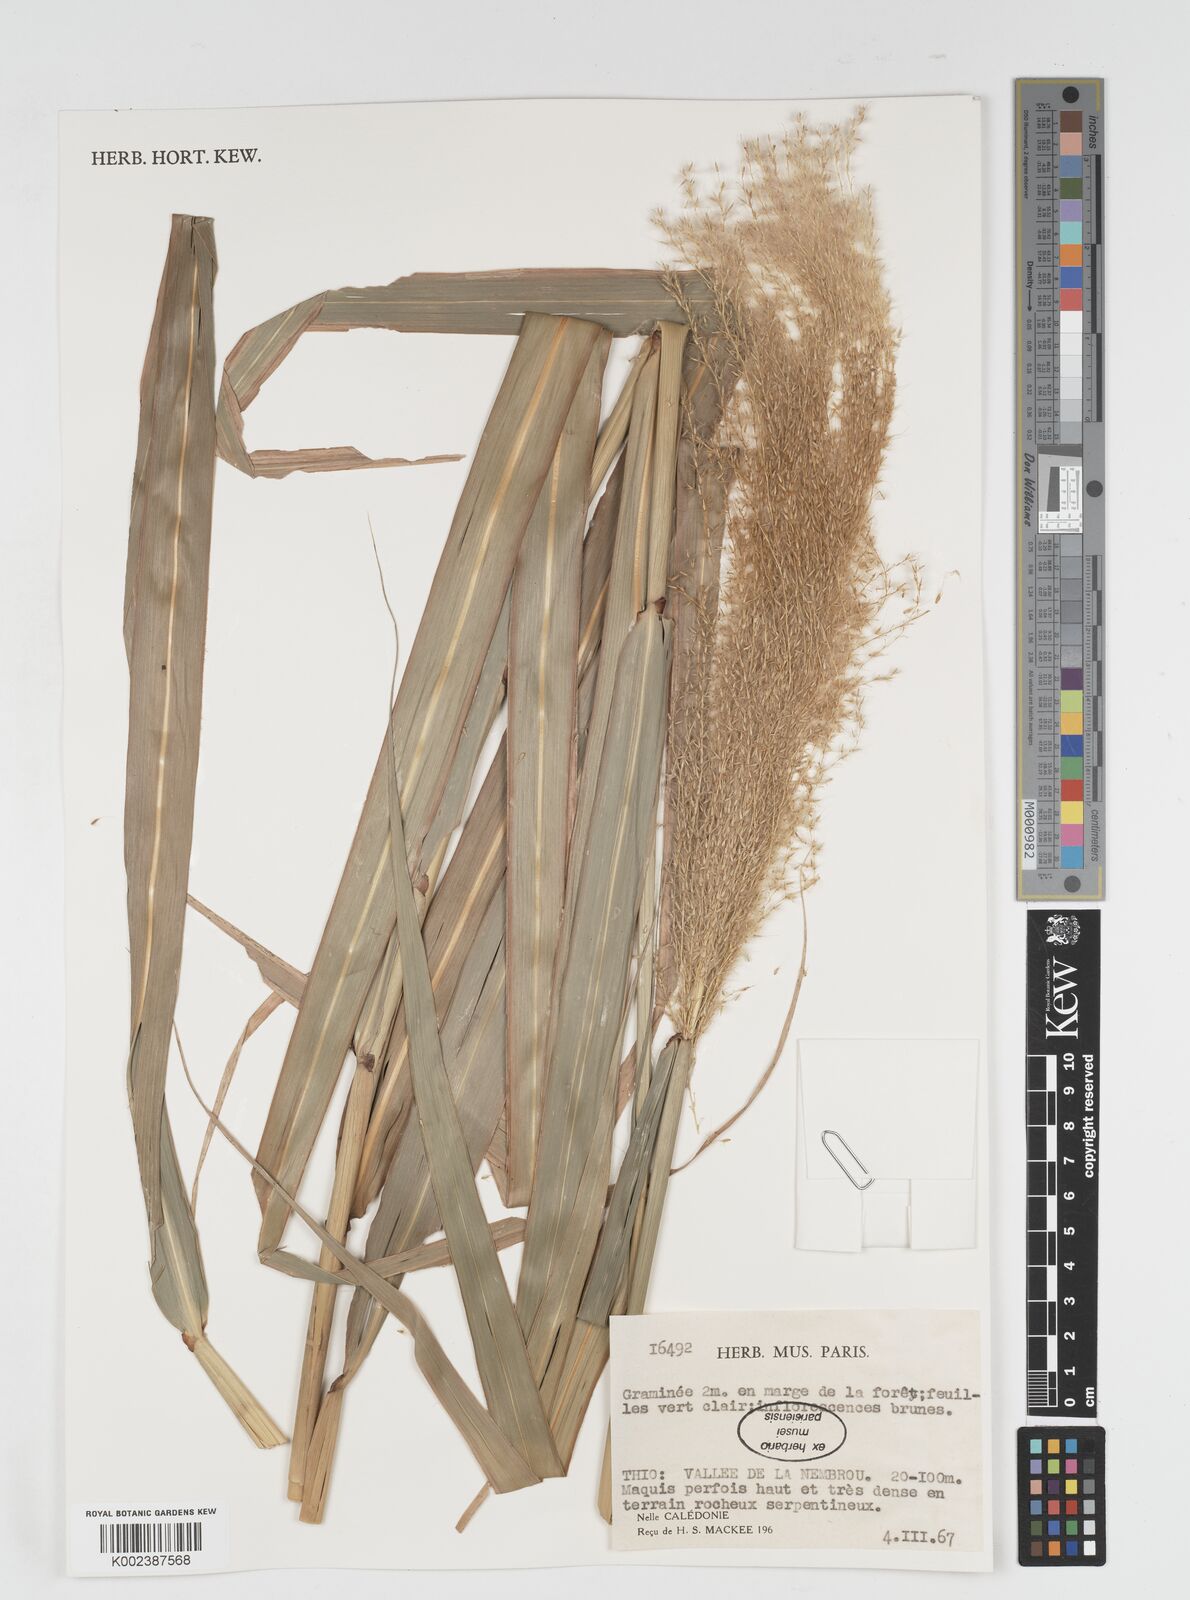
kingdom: Plantae
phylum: Tracheophyta
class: Liliopsida
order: Poales
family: Poaceae
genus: Miscanthus
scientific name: Miscanthus floridulus
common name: Pacific island silvergrass
